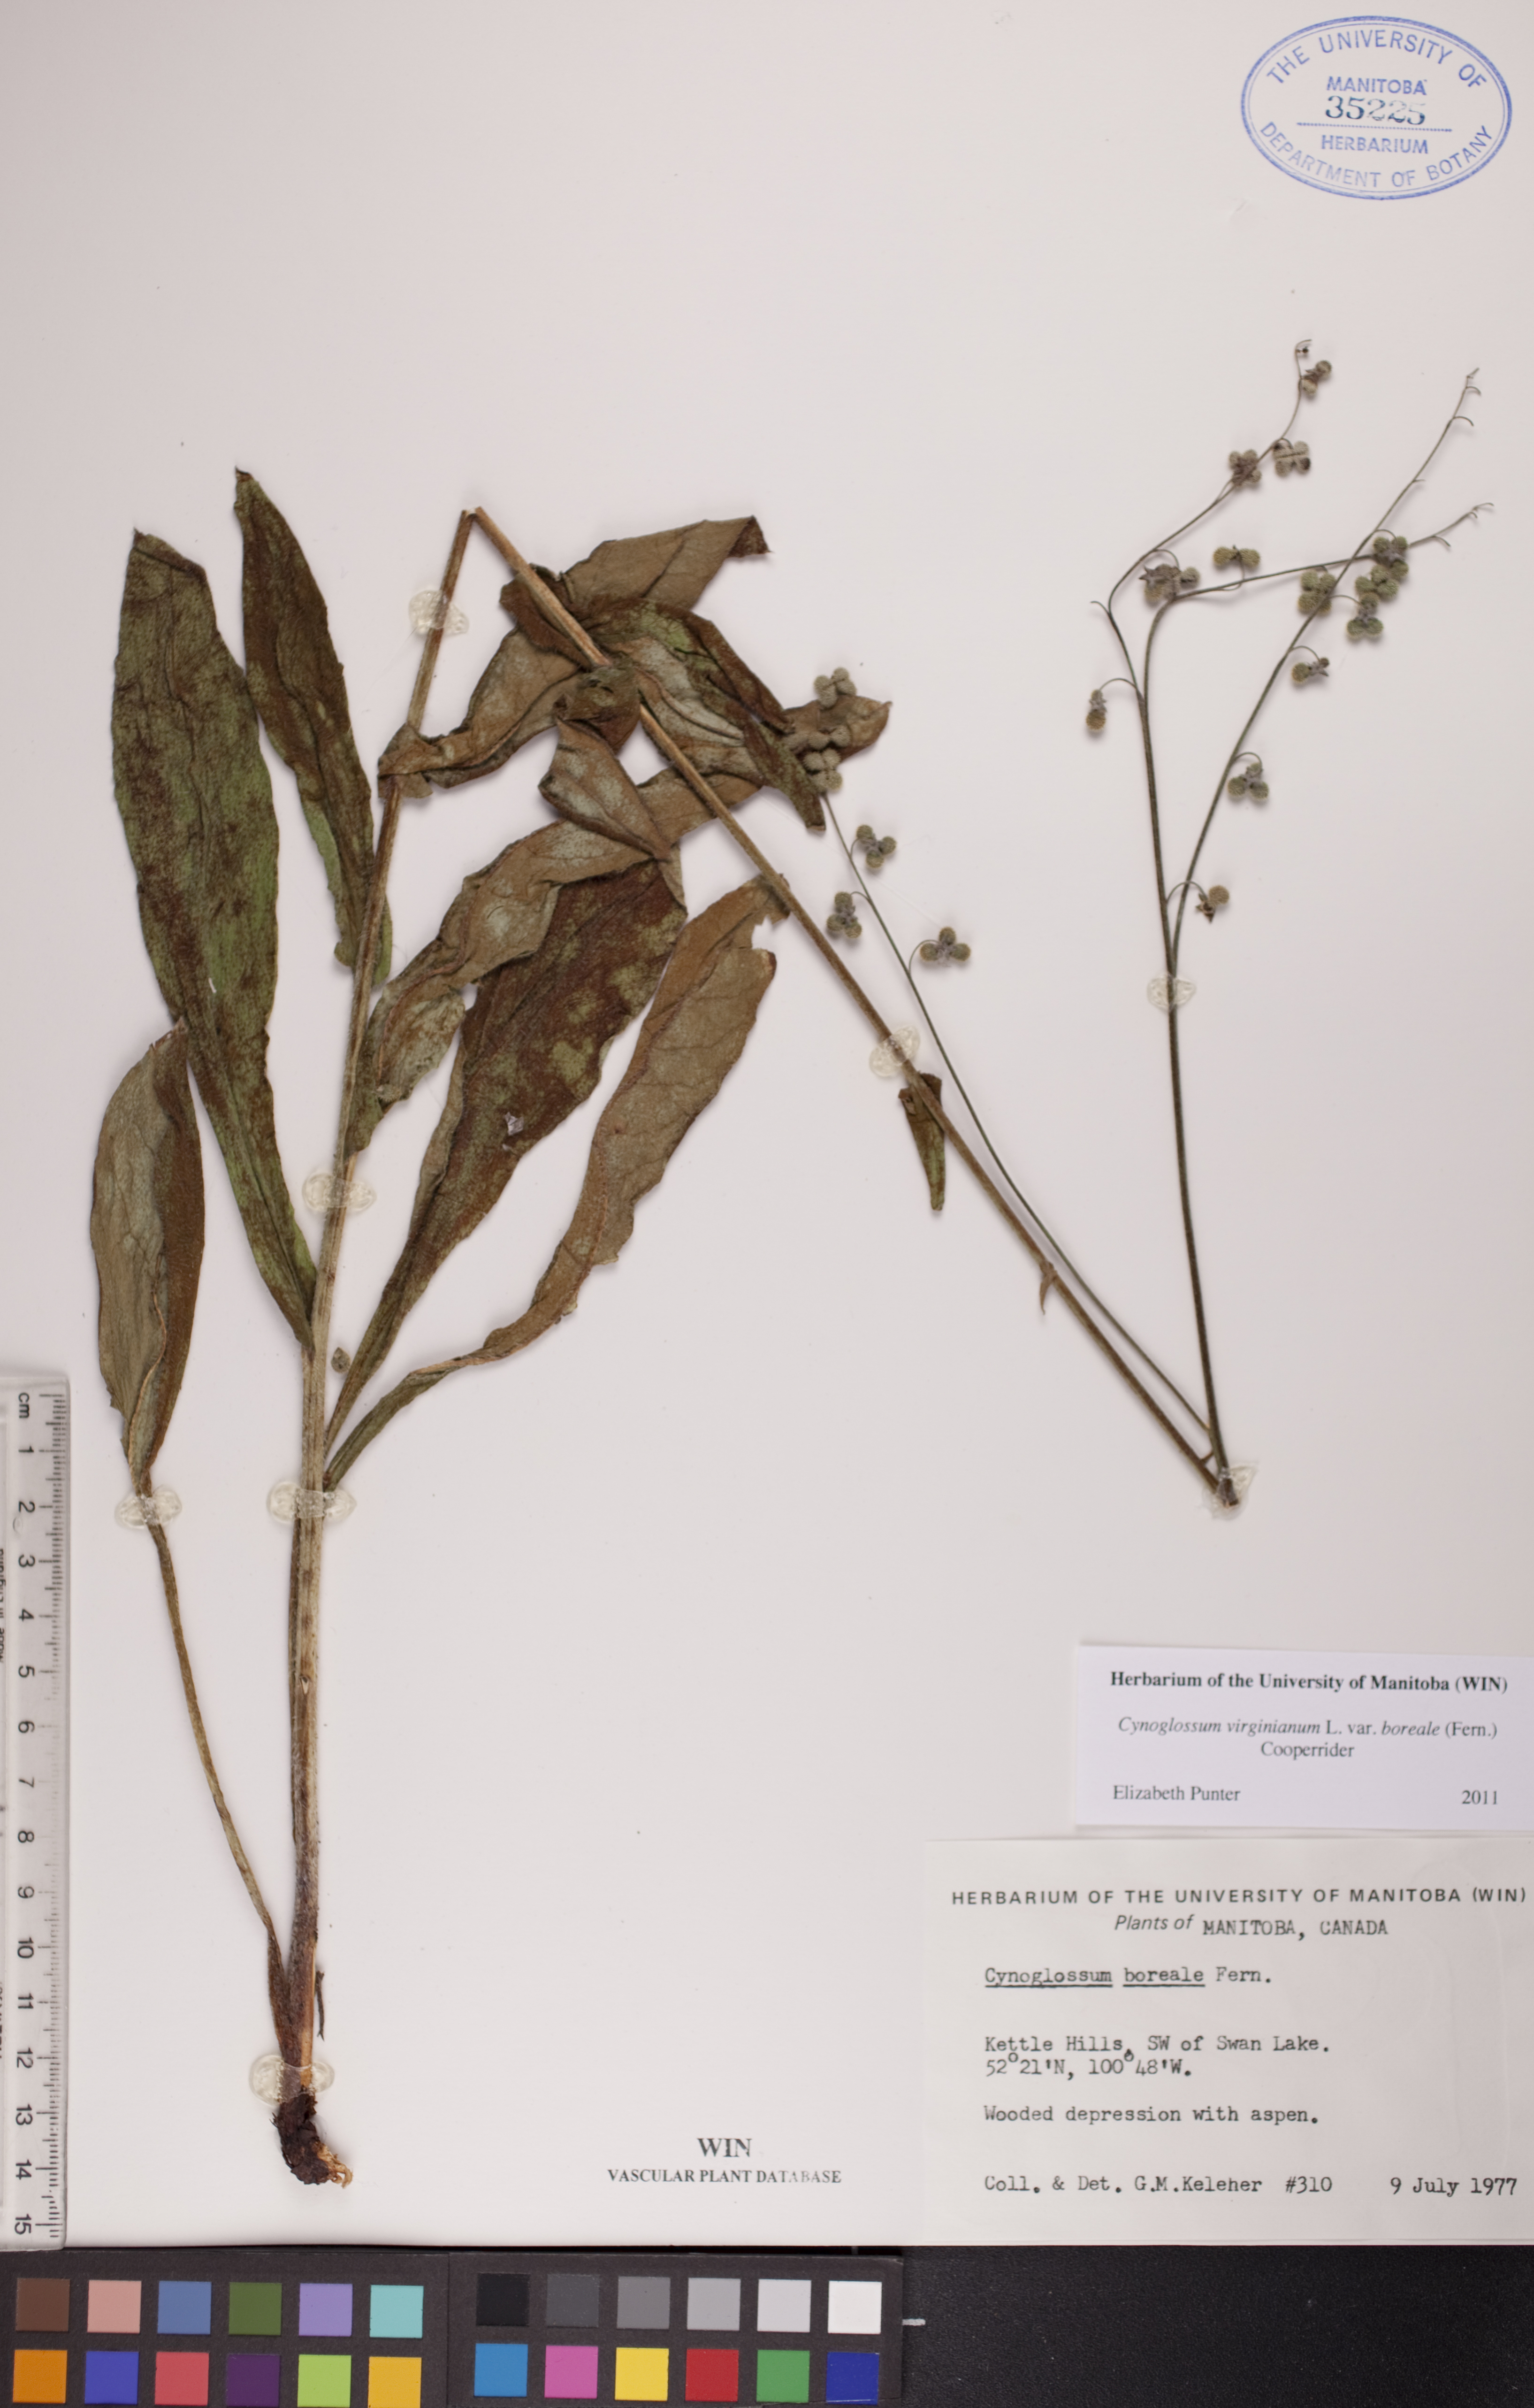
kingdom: Plantae
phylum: Tracheophyta
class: Magnoliopsida
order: Boraginales
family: Boraginaceae
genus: Andersonglossum
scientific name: Andersonglossum boreale
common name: Northern hound's-tongue
